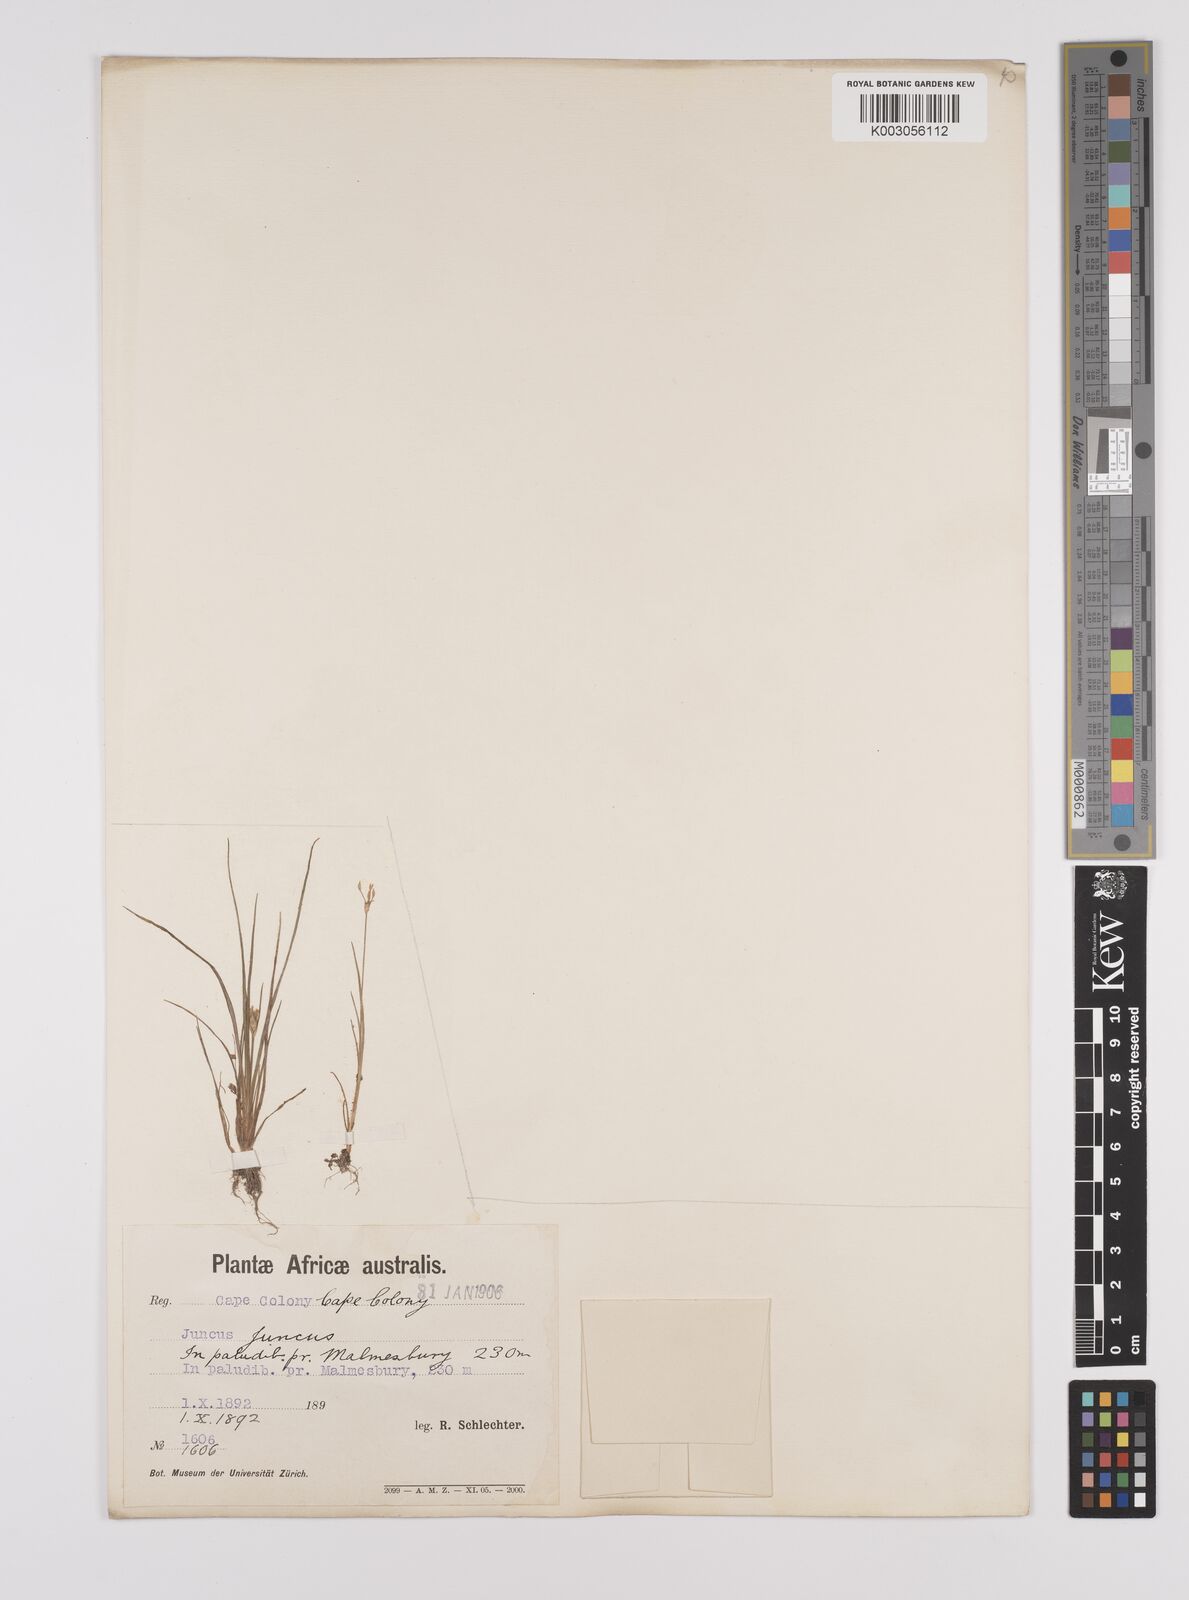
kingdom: Plantae
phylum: Tracheophyta
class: Liliopsida
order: Poales
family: Juncaceae
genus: Juncus
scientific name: Juncus
